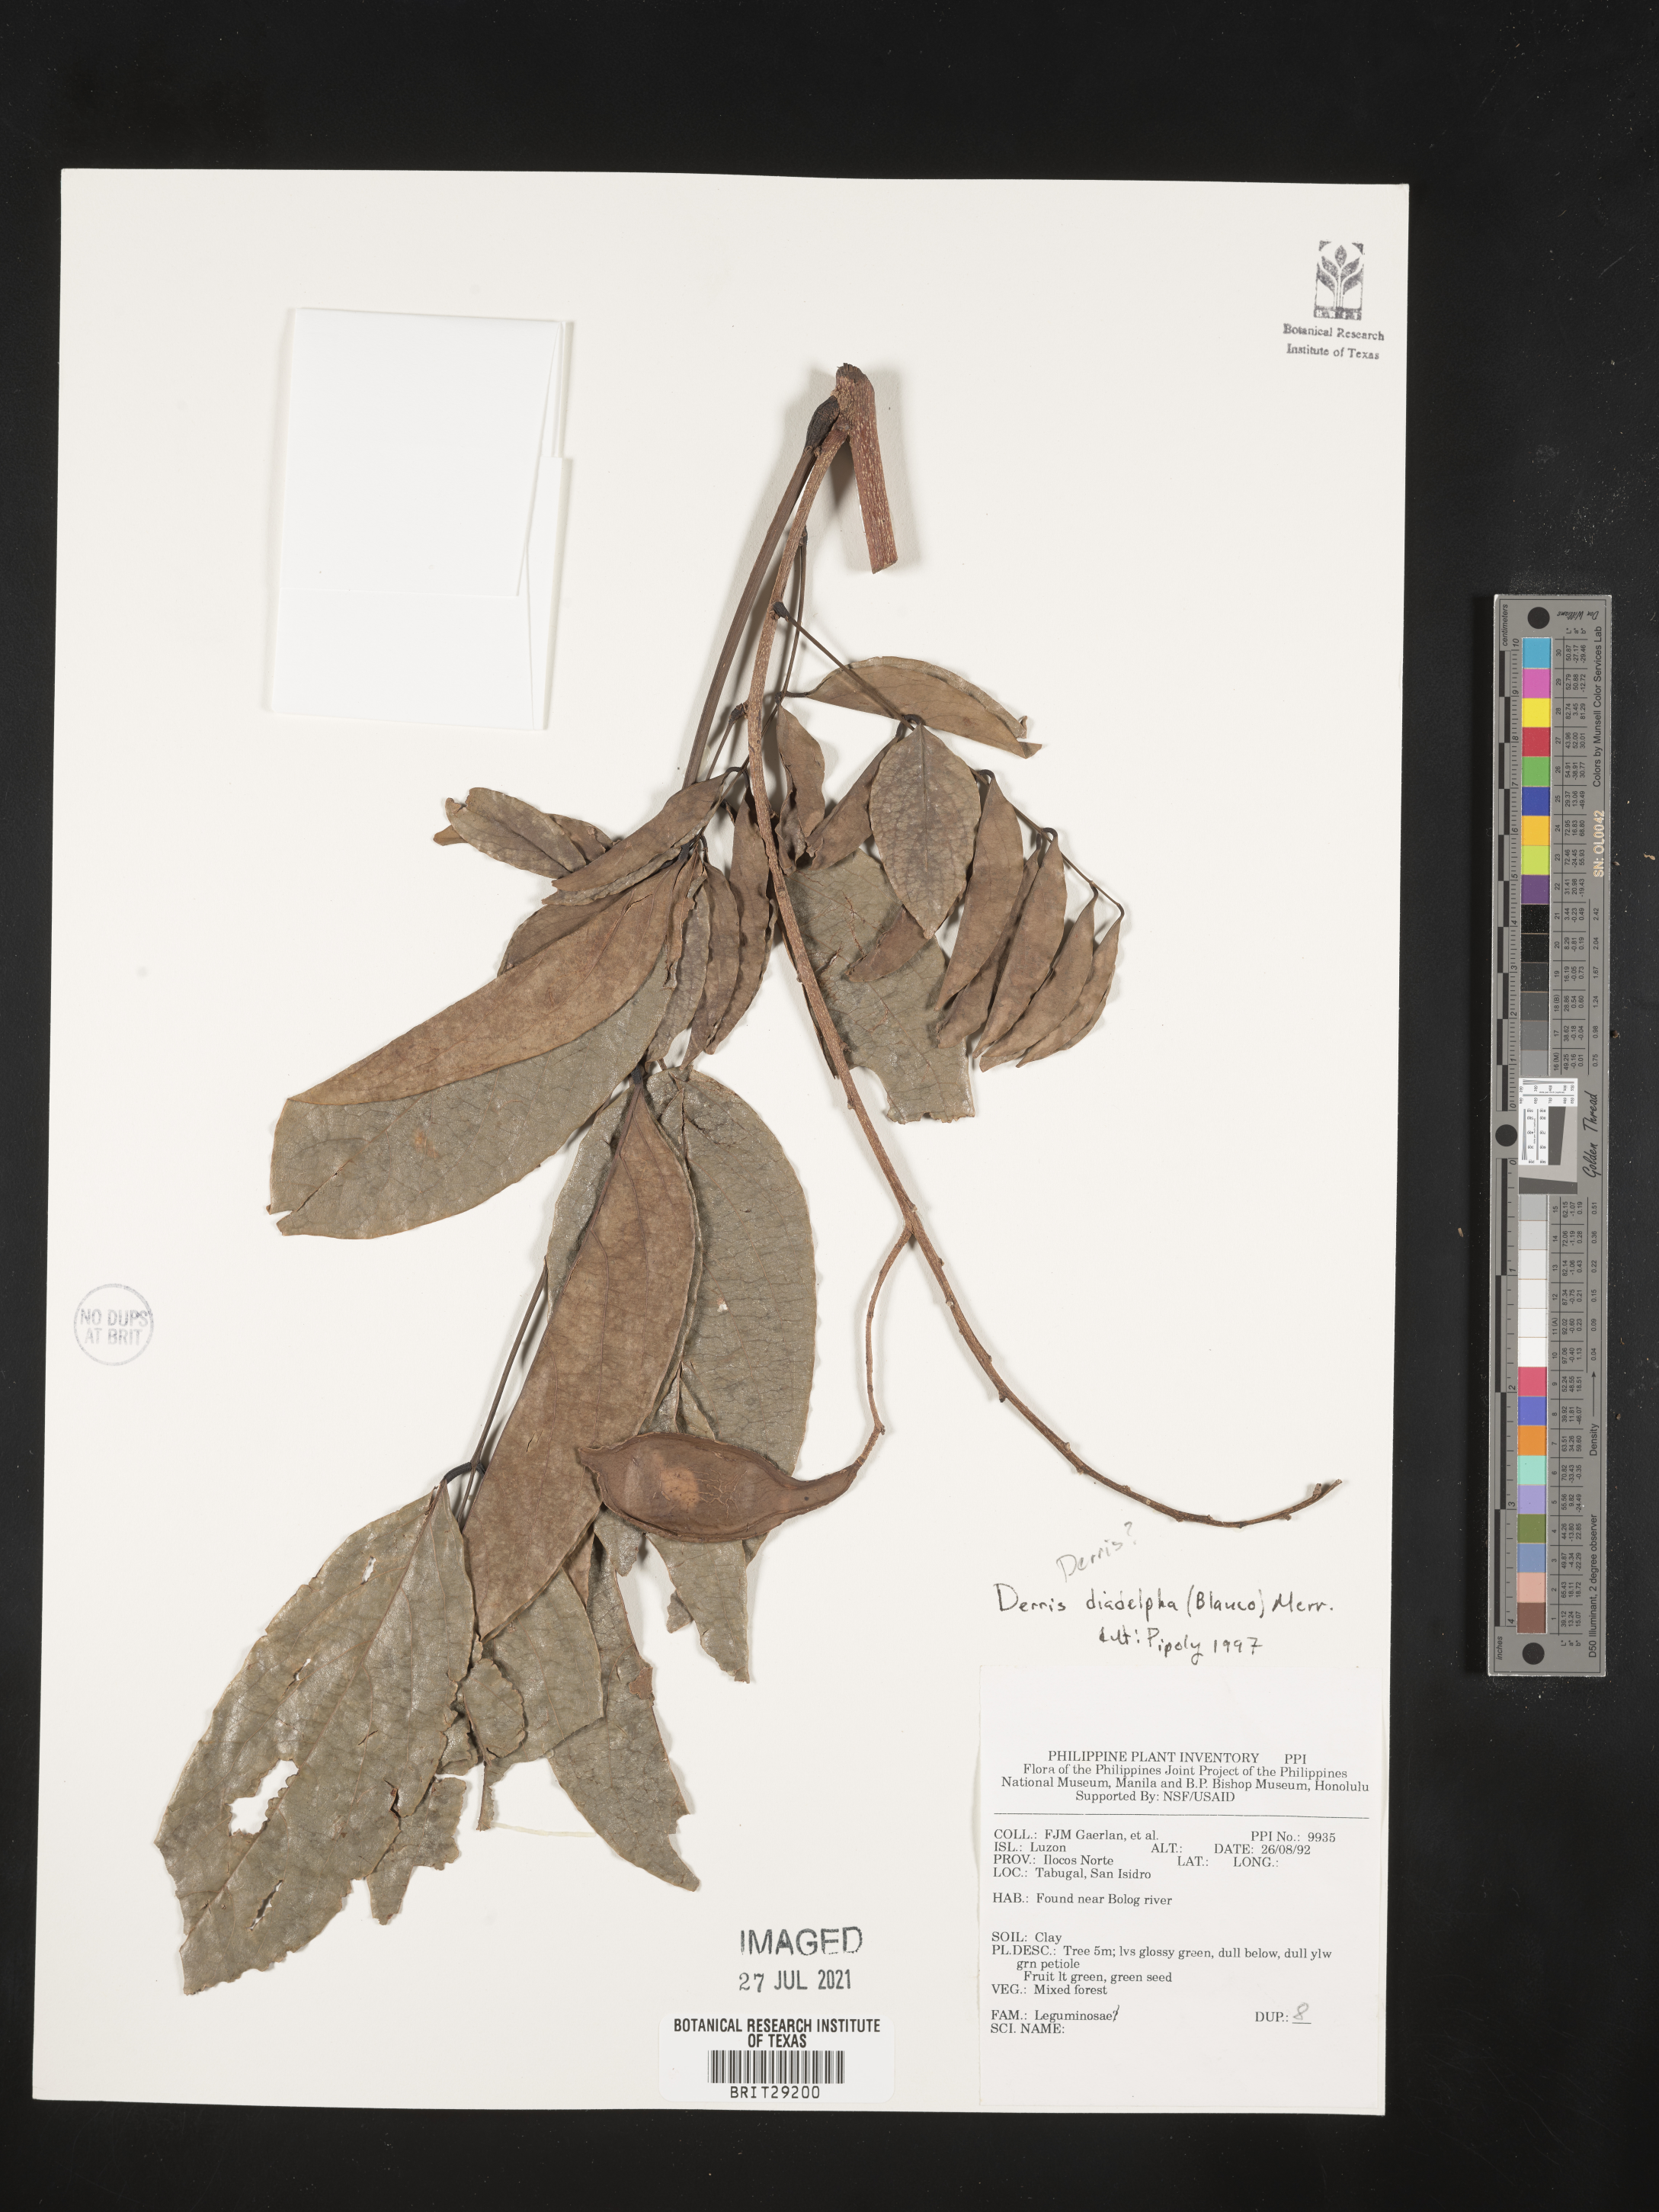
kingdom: Plantae
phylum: Tracheophyta
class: Magnoliopsida
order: Fabales
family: Fabaceae
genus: Aganope
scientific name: Aganope heptaphylla
